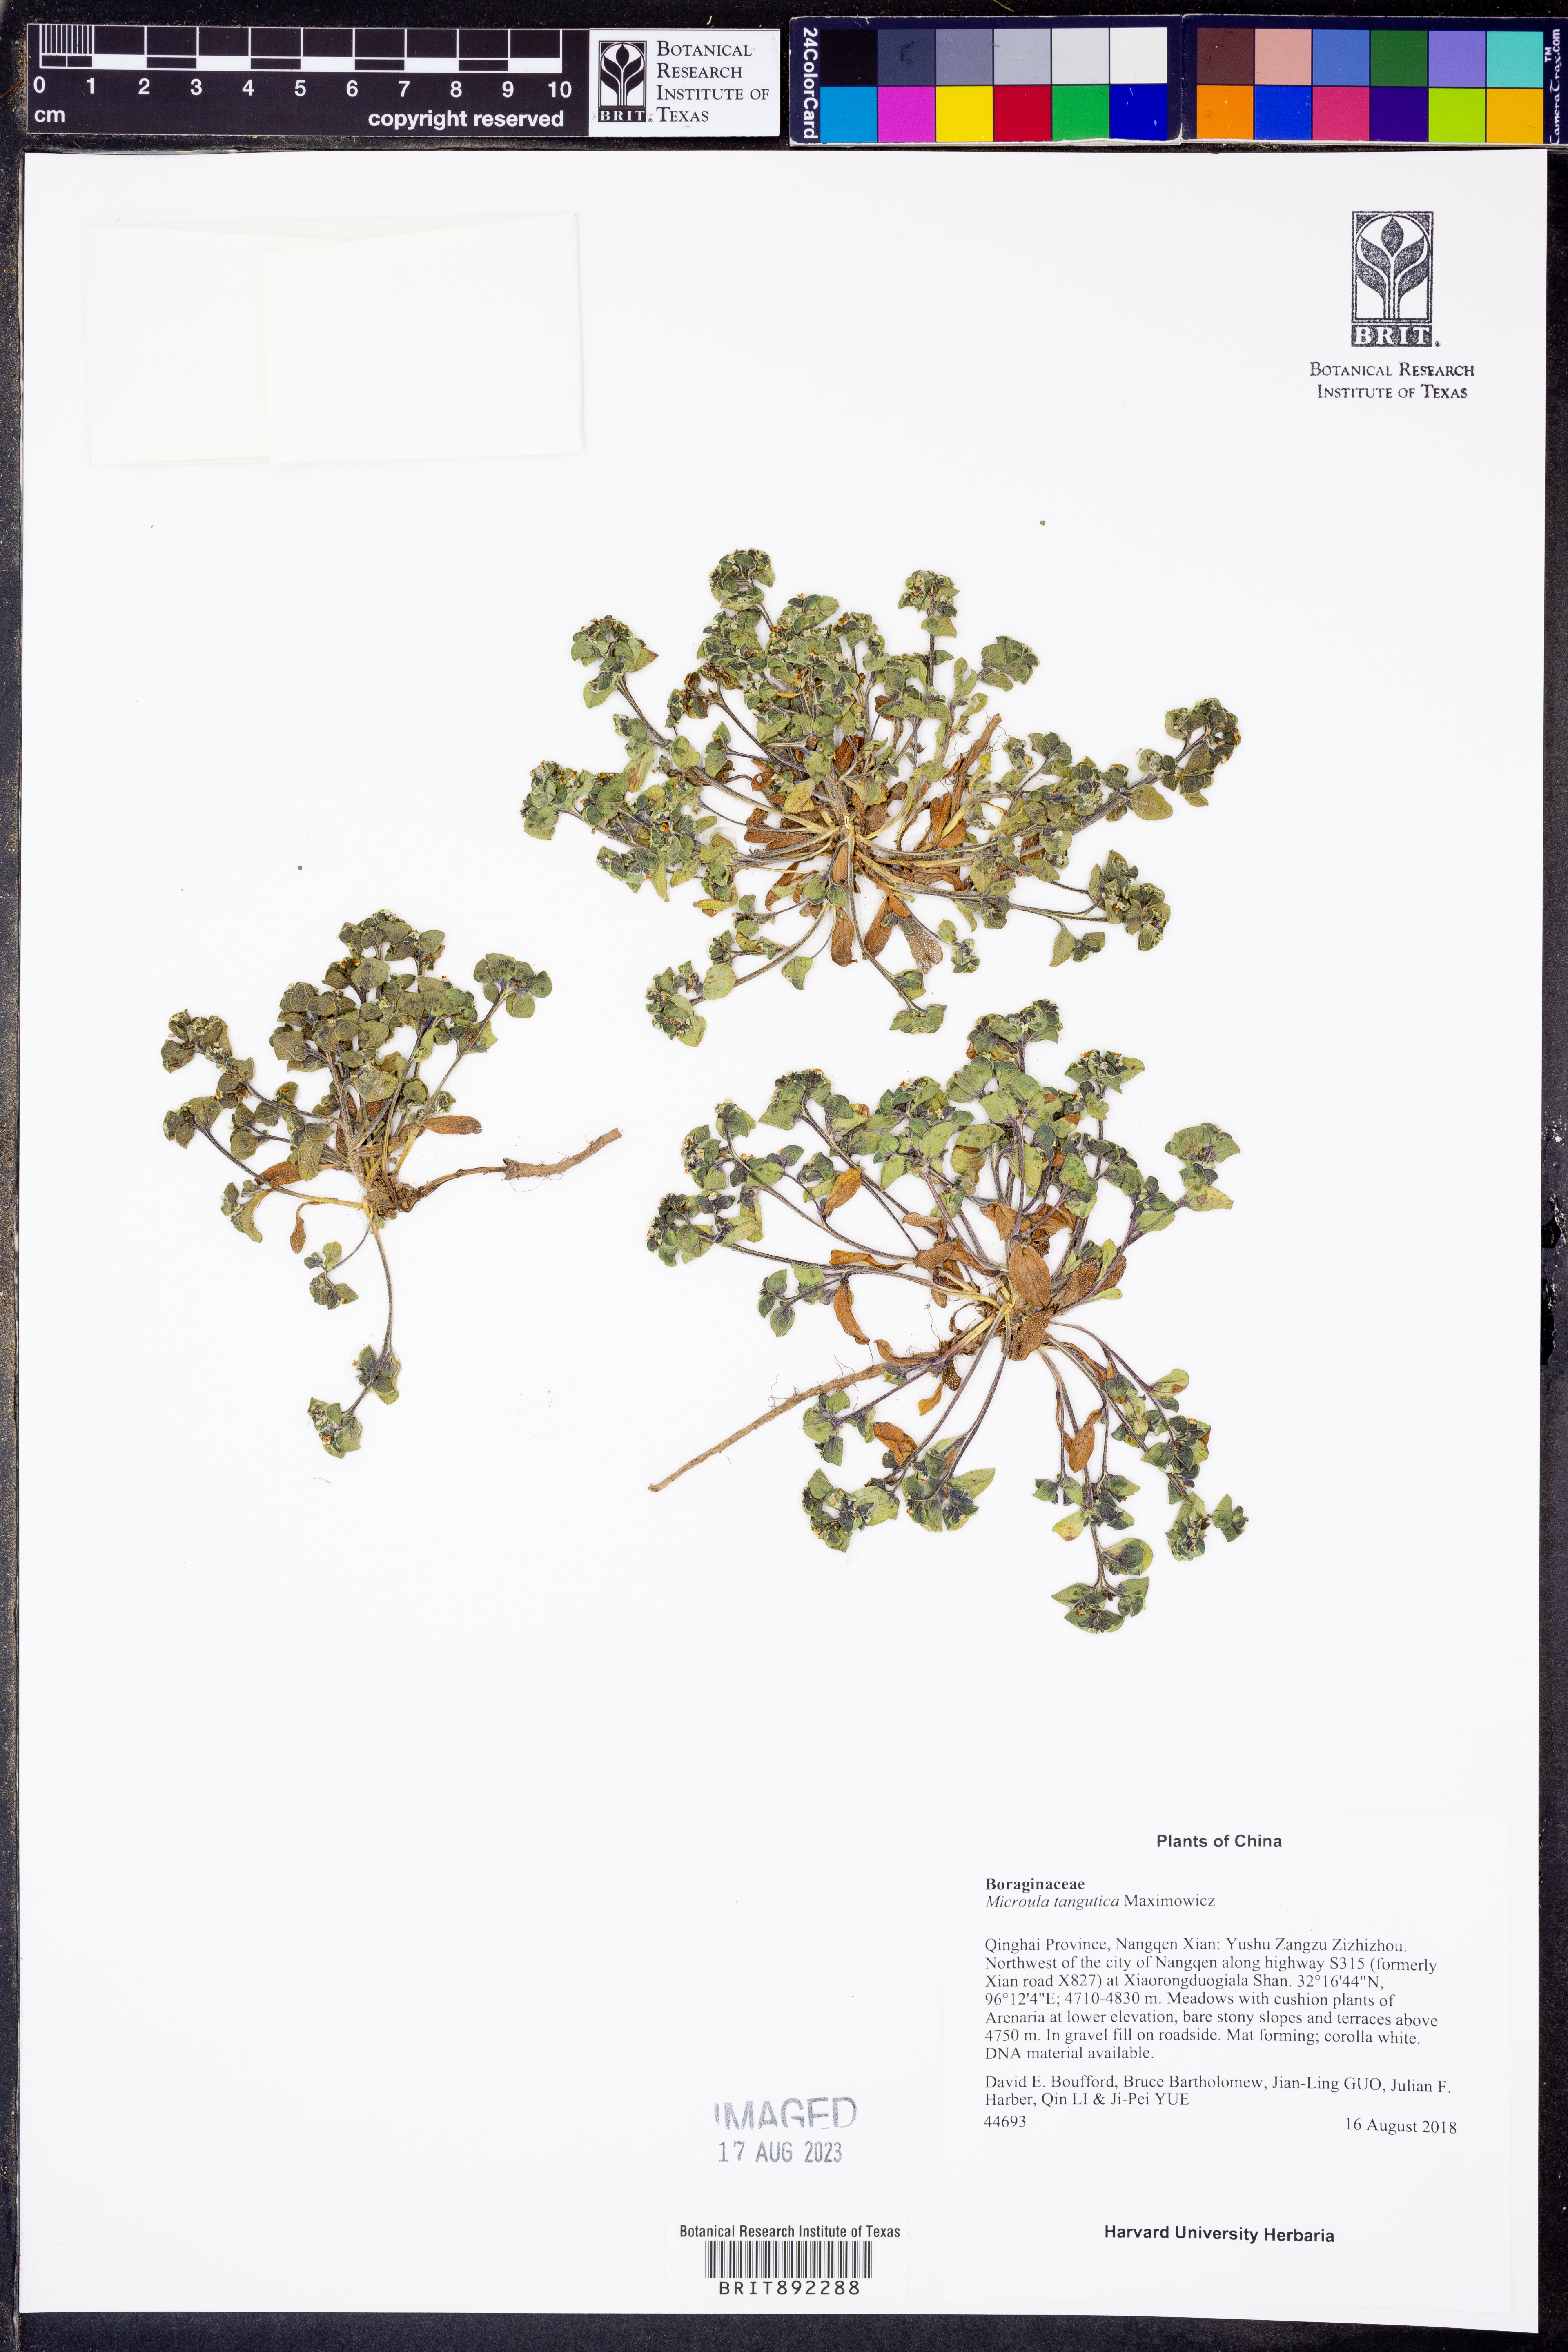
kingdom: Plantae
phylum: Tracheophyta
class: Magnoliopsida
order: Boraginales
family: Boraginaceae
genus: Microula
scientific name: Microula tangutica
